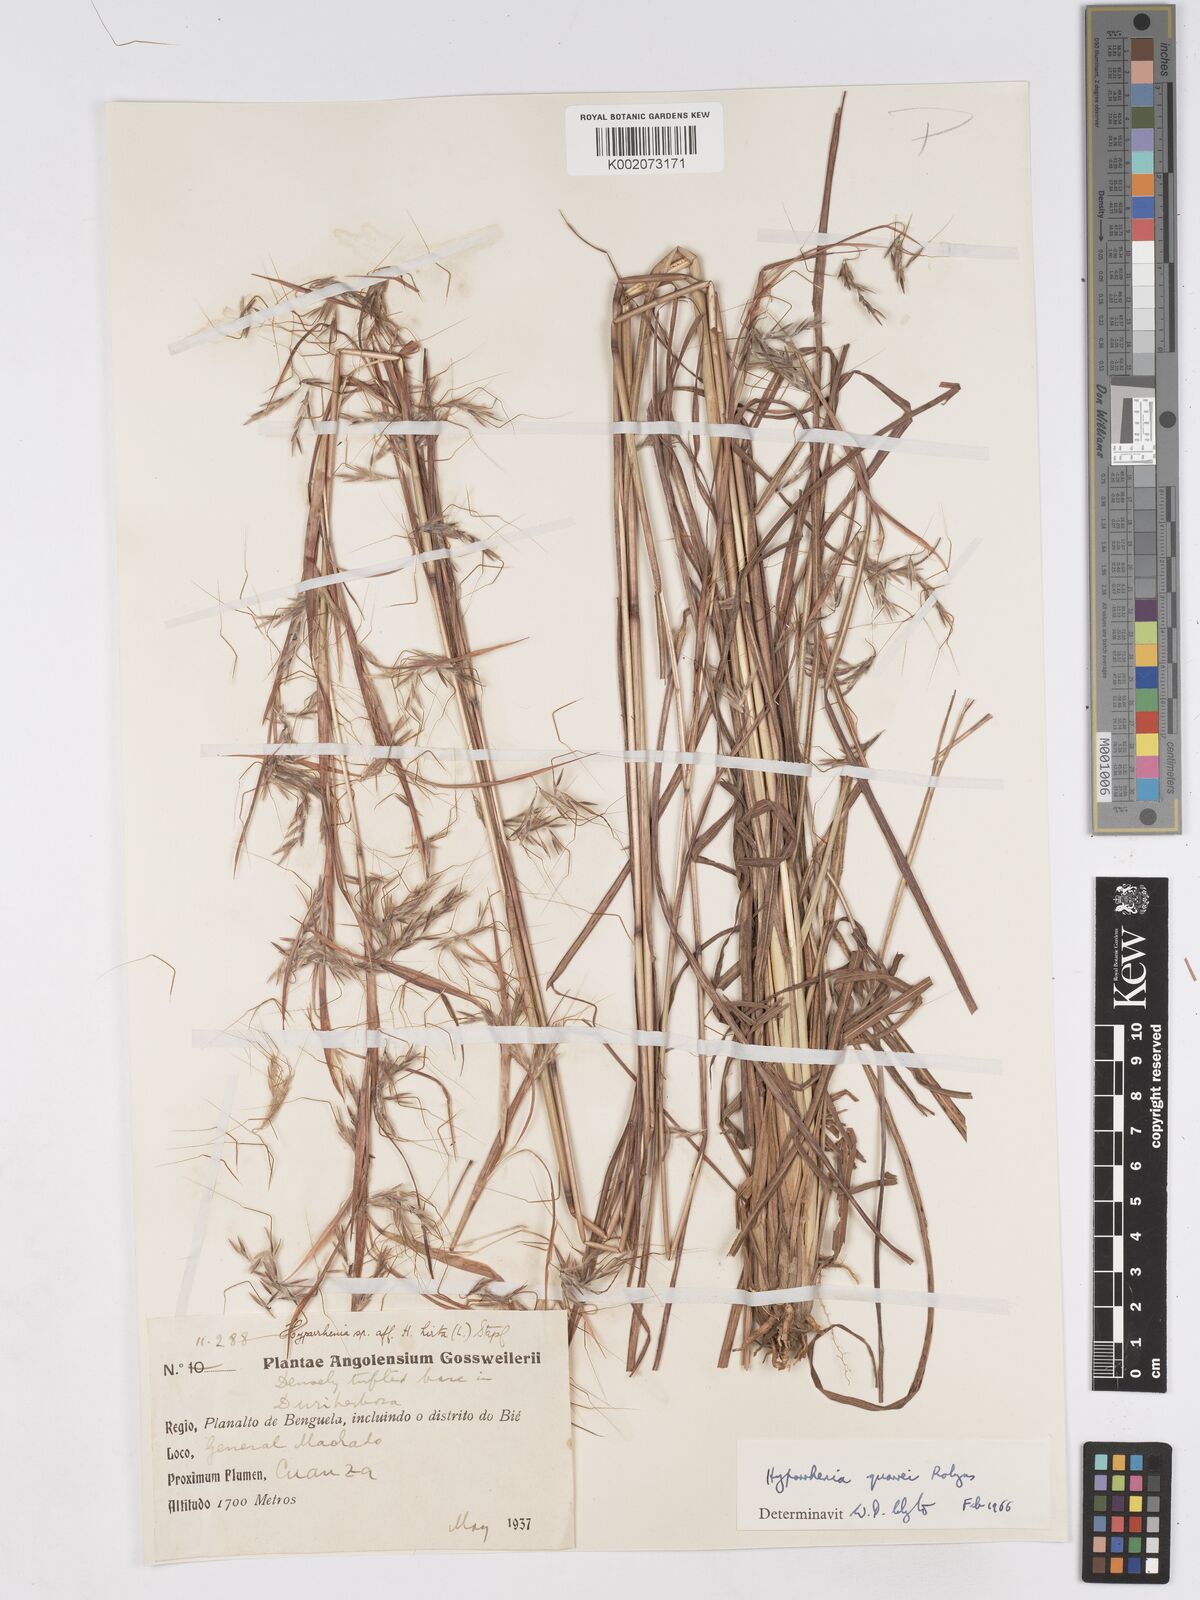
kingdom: Plantae
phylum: Tracheophyta
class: Liliopsida
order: Poales
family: Poaceae
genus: Hyparrhenia
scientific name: Hyparrhenia quarrei
